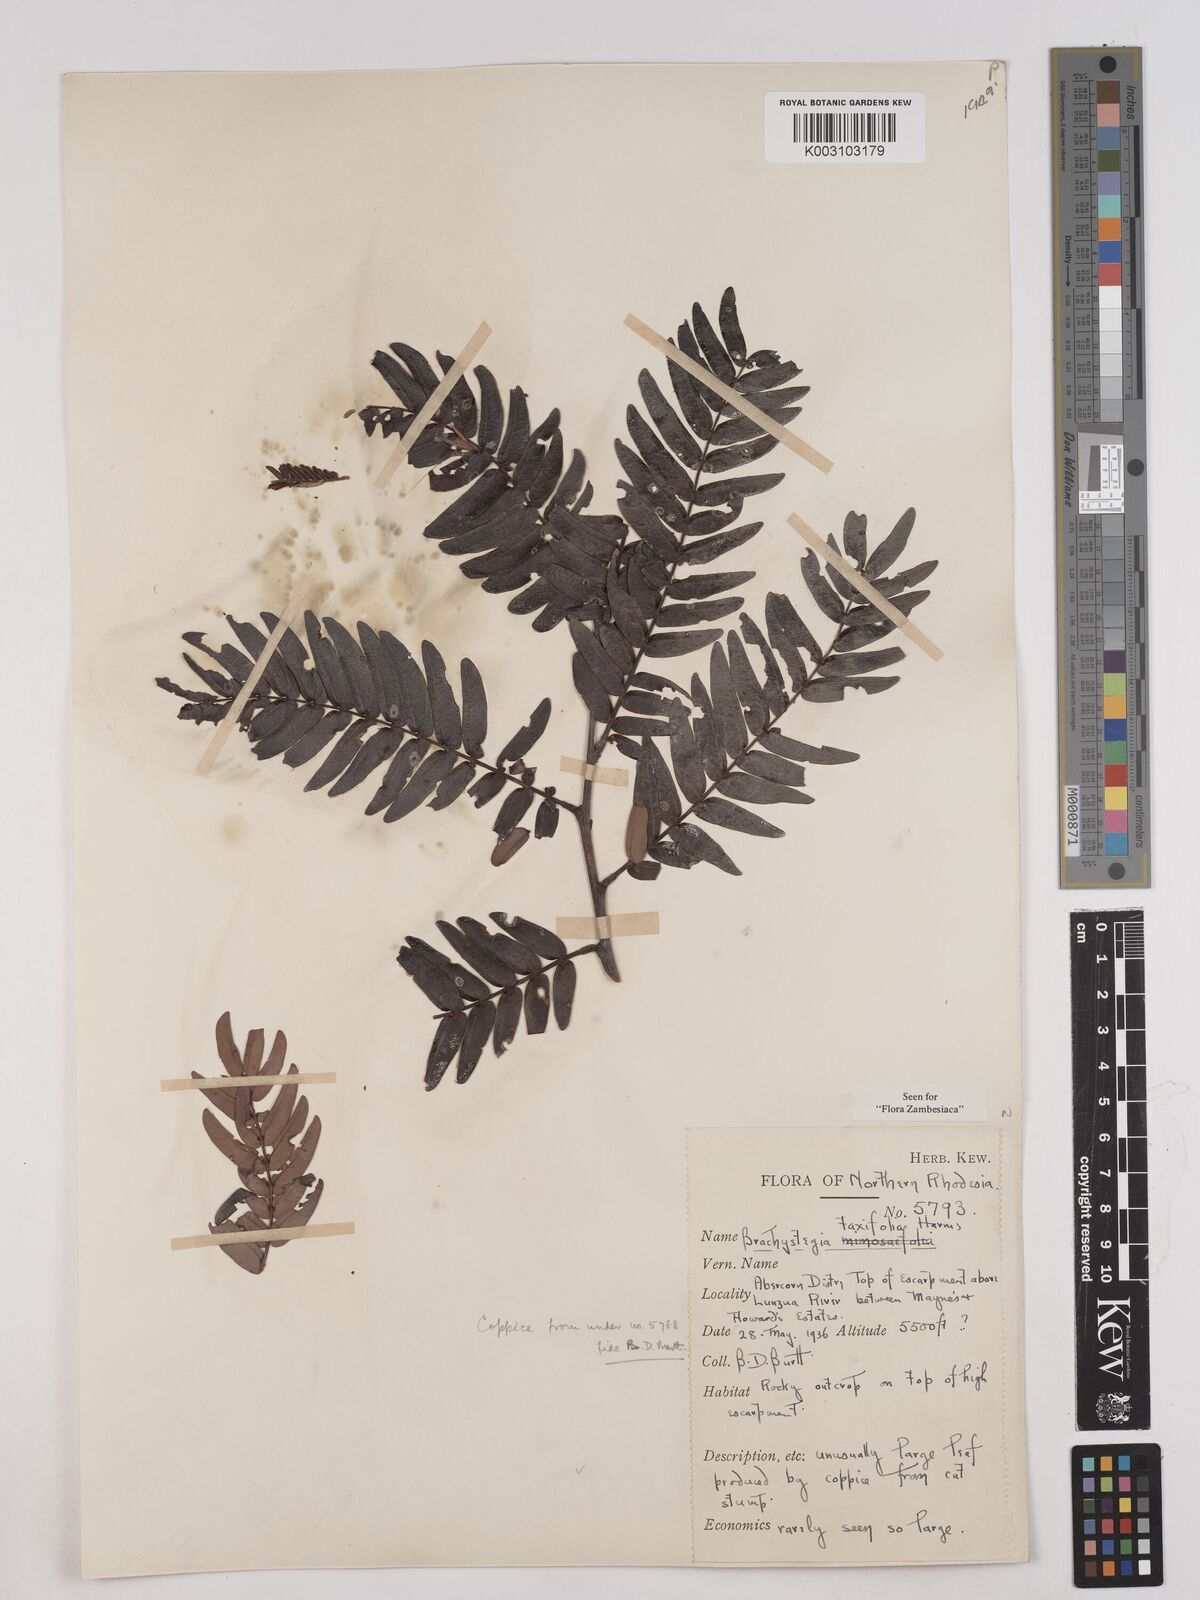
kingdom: Plantae
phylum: Tracheophyta
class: Magnoliopsida
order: Fabales
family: Fabaceae
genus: Brachystegia
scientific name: Brachystegia taxifolia
